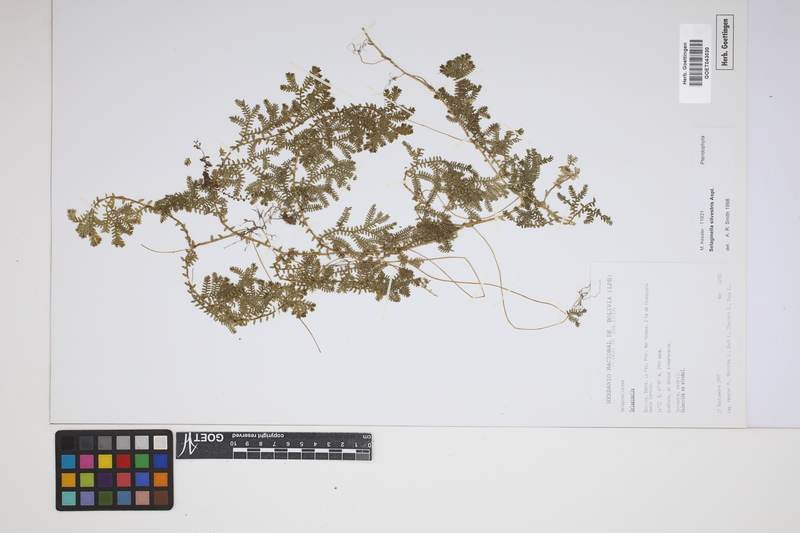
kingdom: Plantae
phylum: Tracheophyta
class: Lycopodiopsida
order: Selaginellales
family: Selaginellaceae
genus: Selaginella
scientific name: Selaginella silvestris
